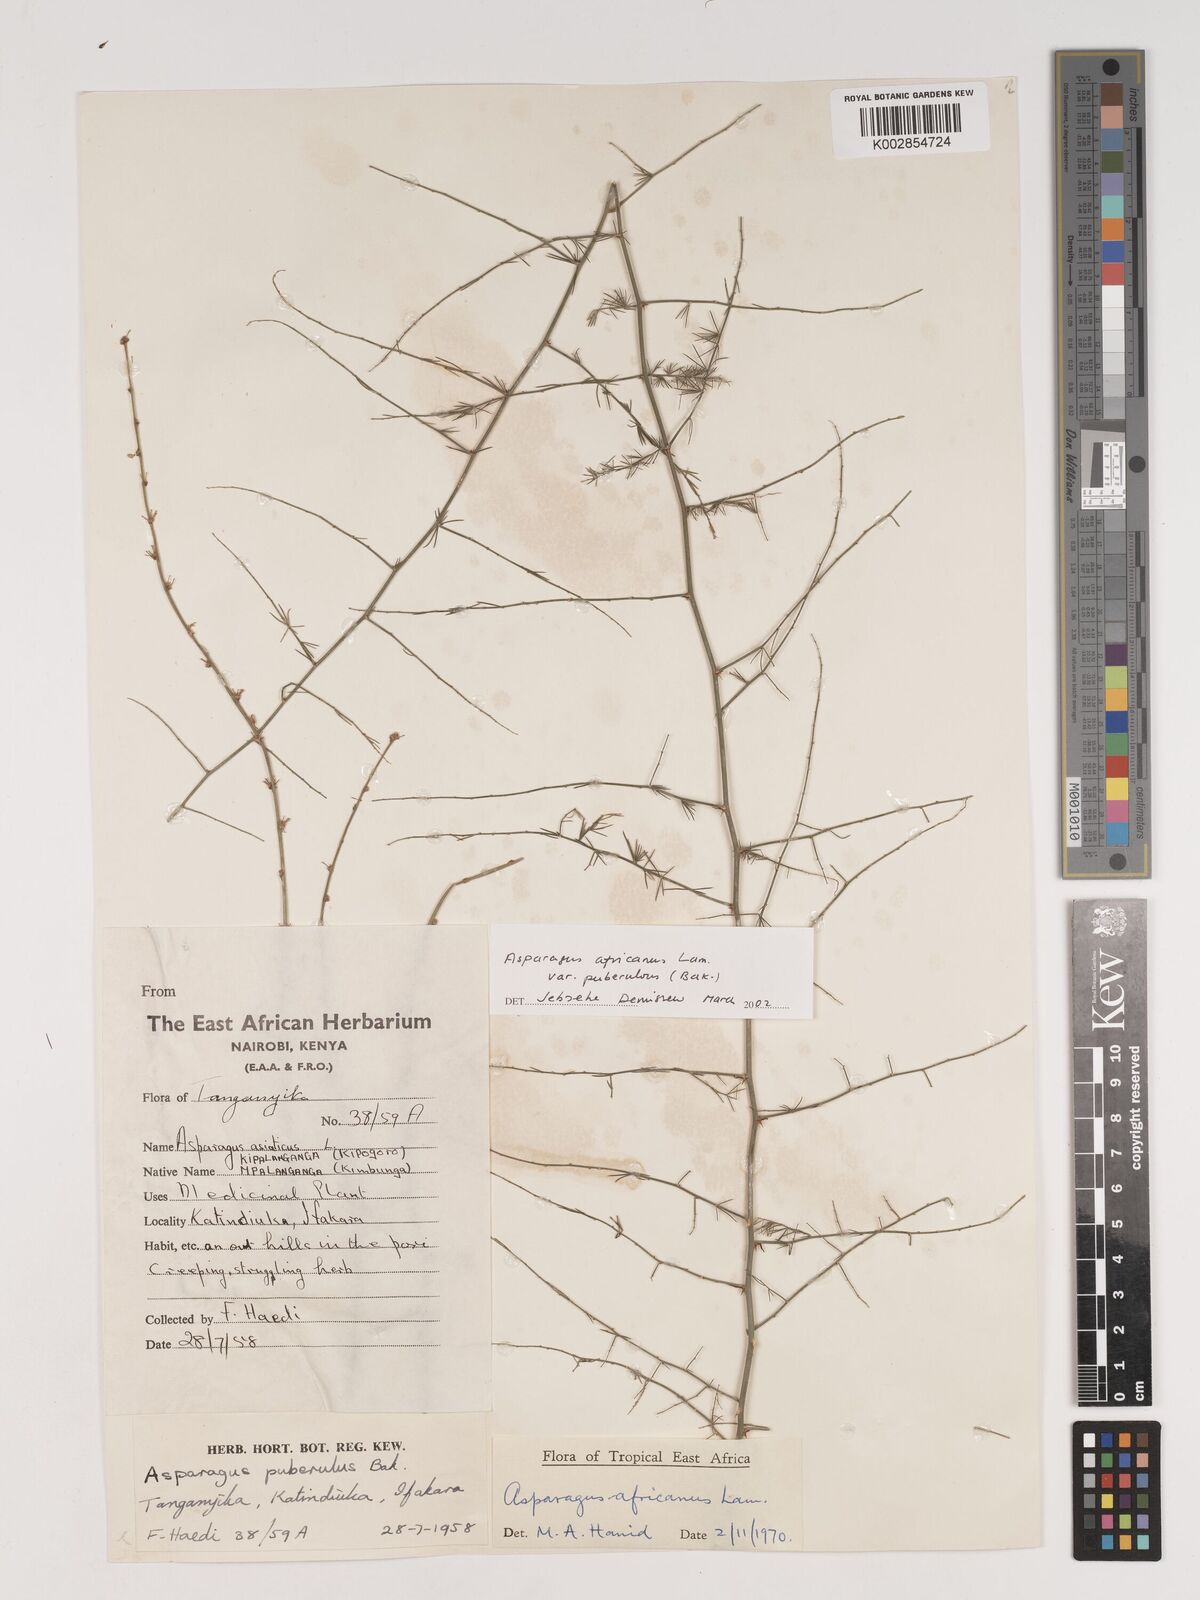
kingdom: Plantae
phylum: Tracheophyta
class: Liliopsida
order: Asparagales
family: Asparagaceae
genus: Asparagus
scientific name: Asparagus africanus
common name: Asparagus-fern
